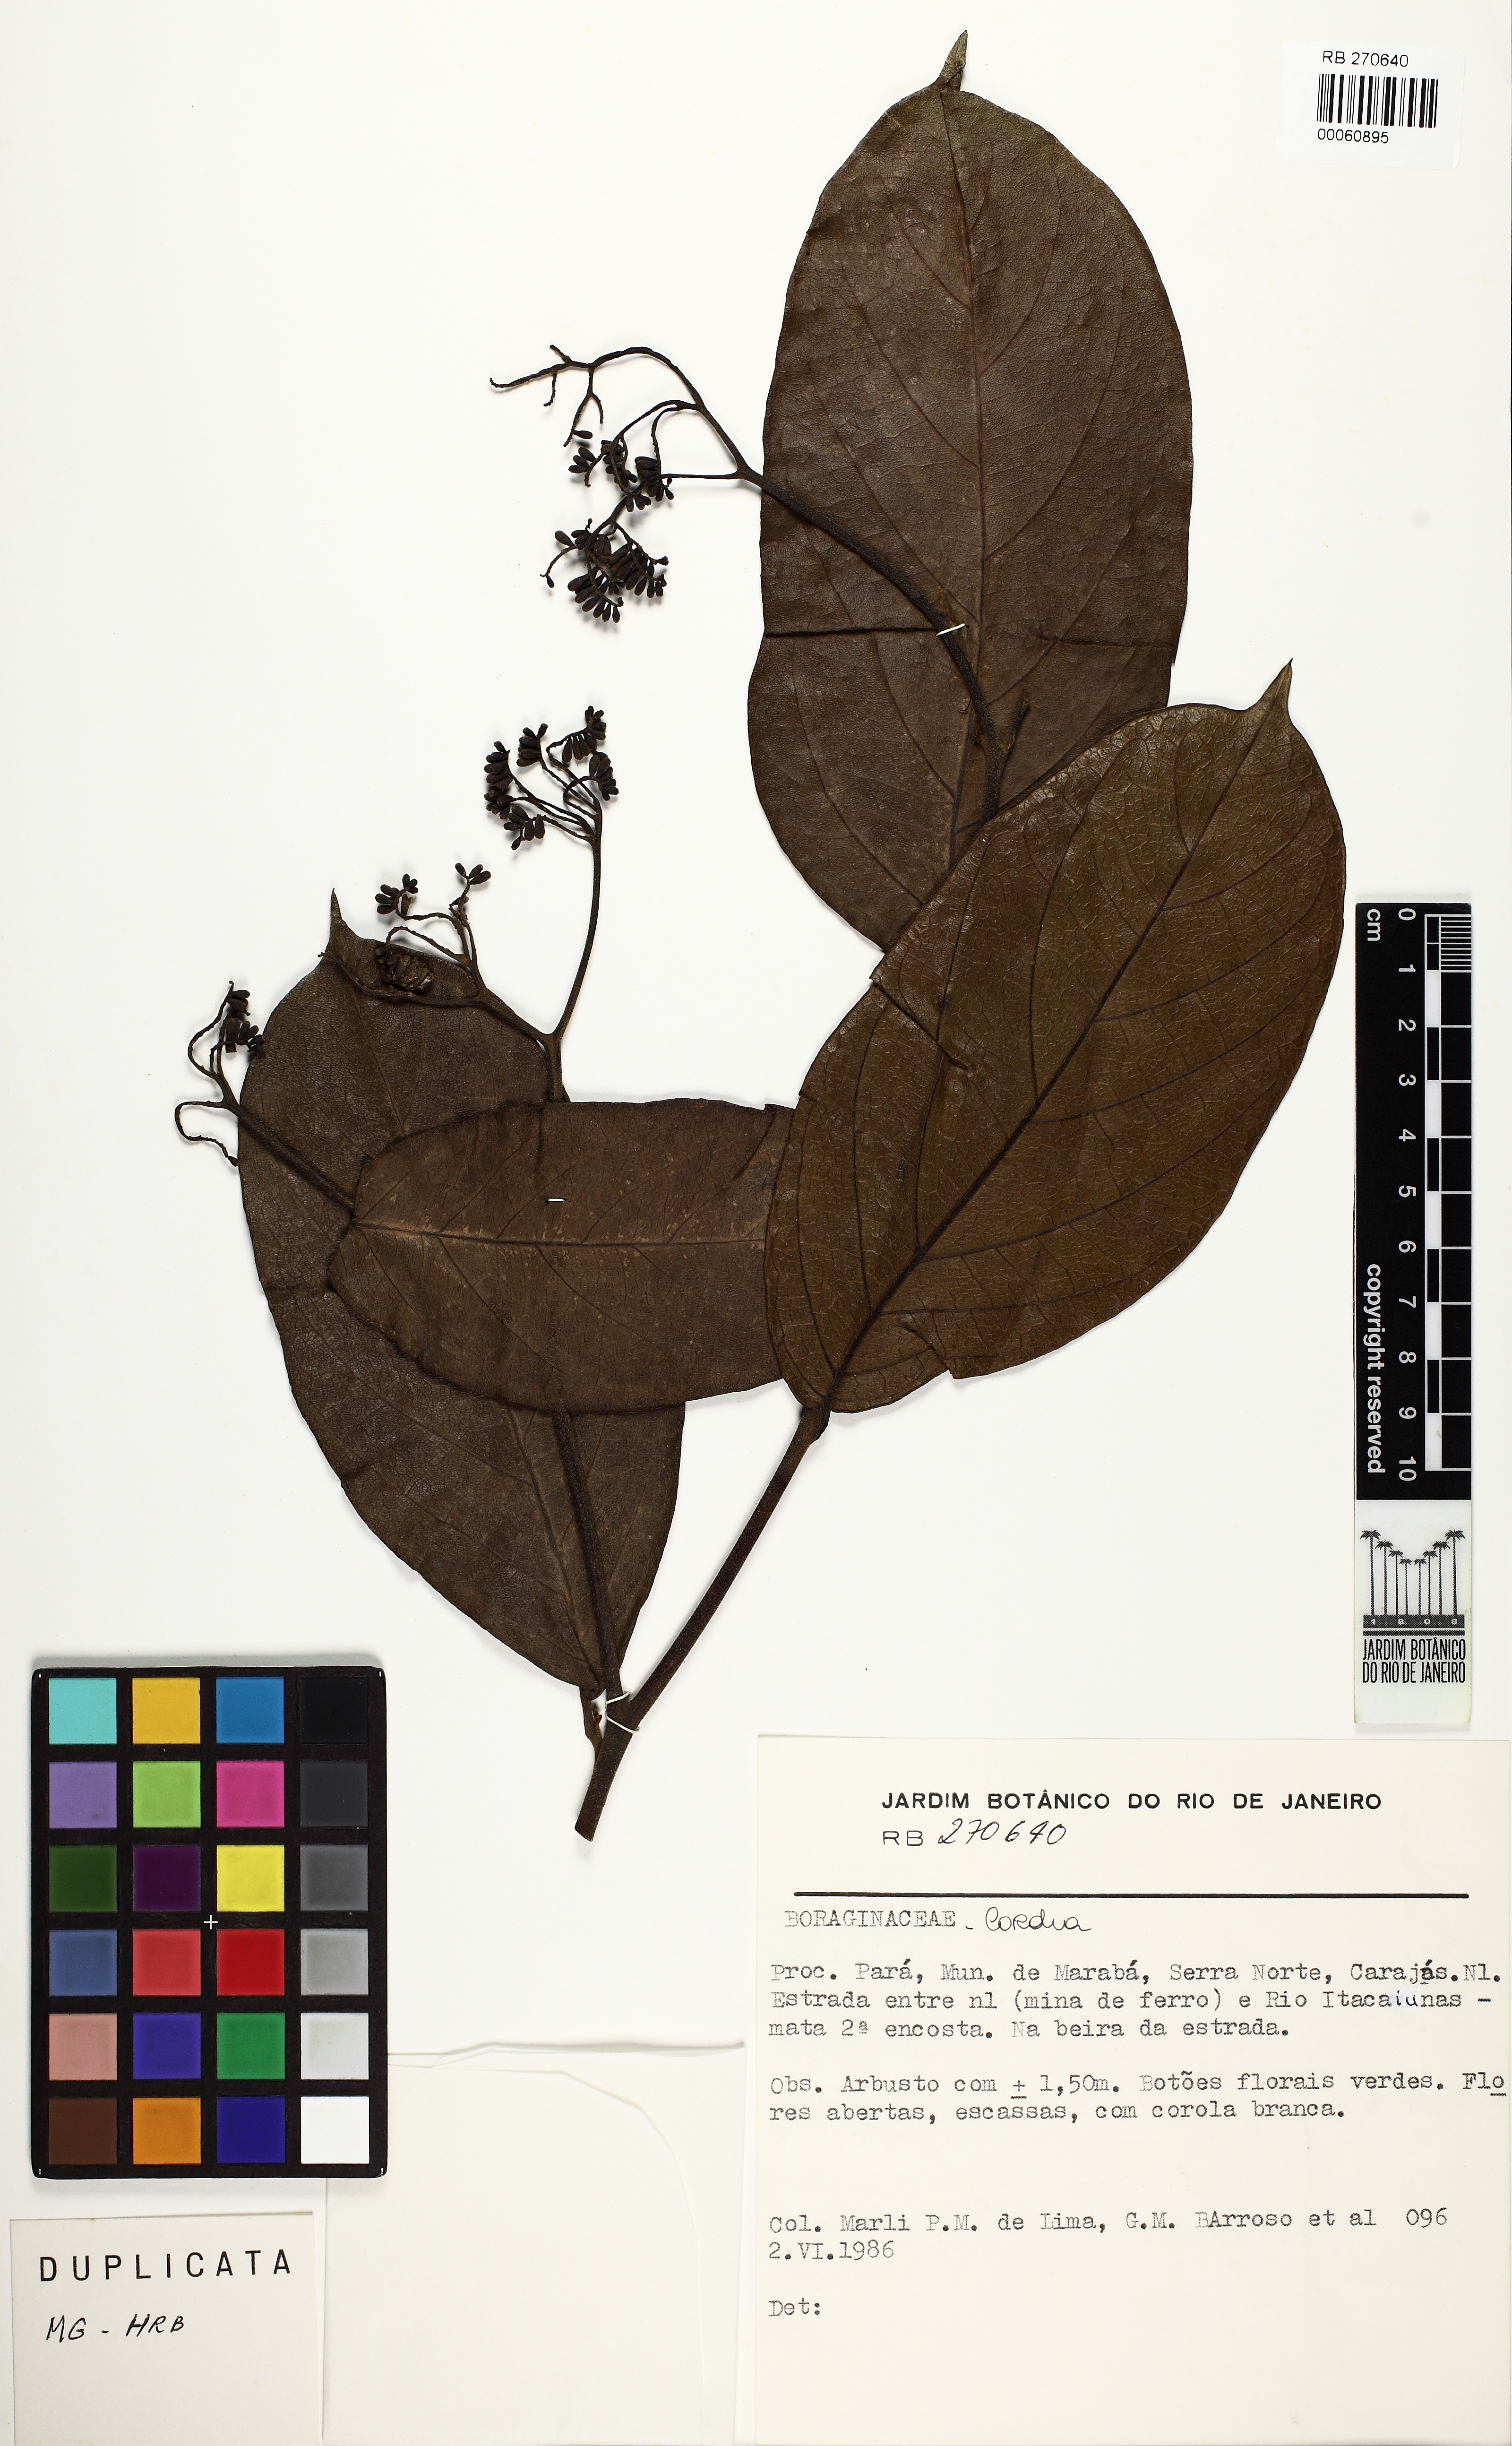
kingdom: Plantae
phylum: Tracheophyta
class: Magnoliopsida
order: Boraginales
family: Cordiaceae
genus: Cordia
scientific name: Cordia
